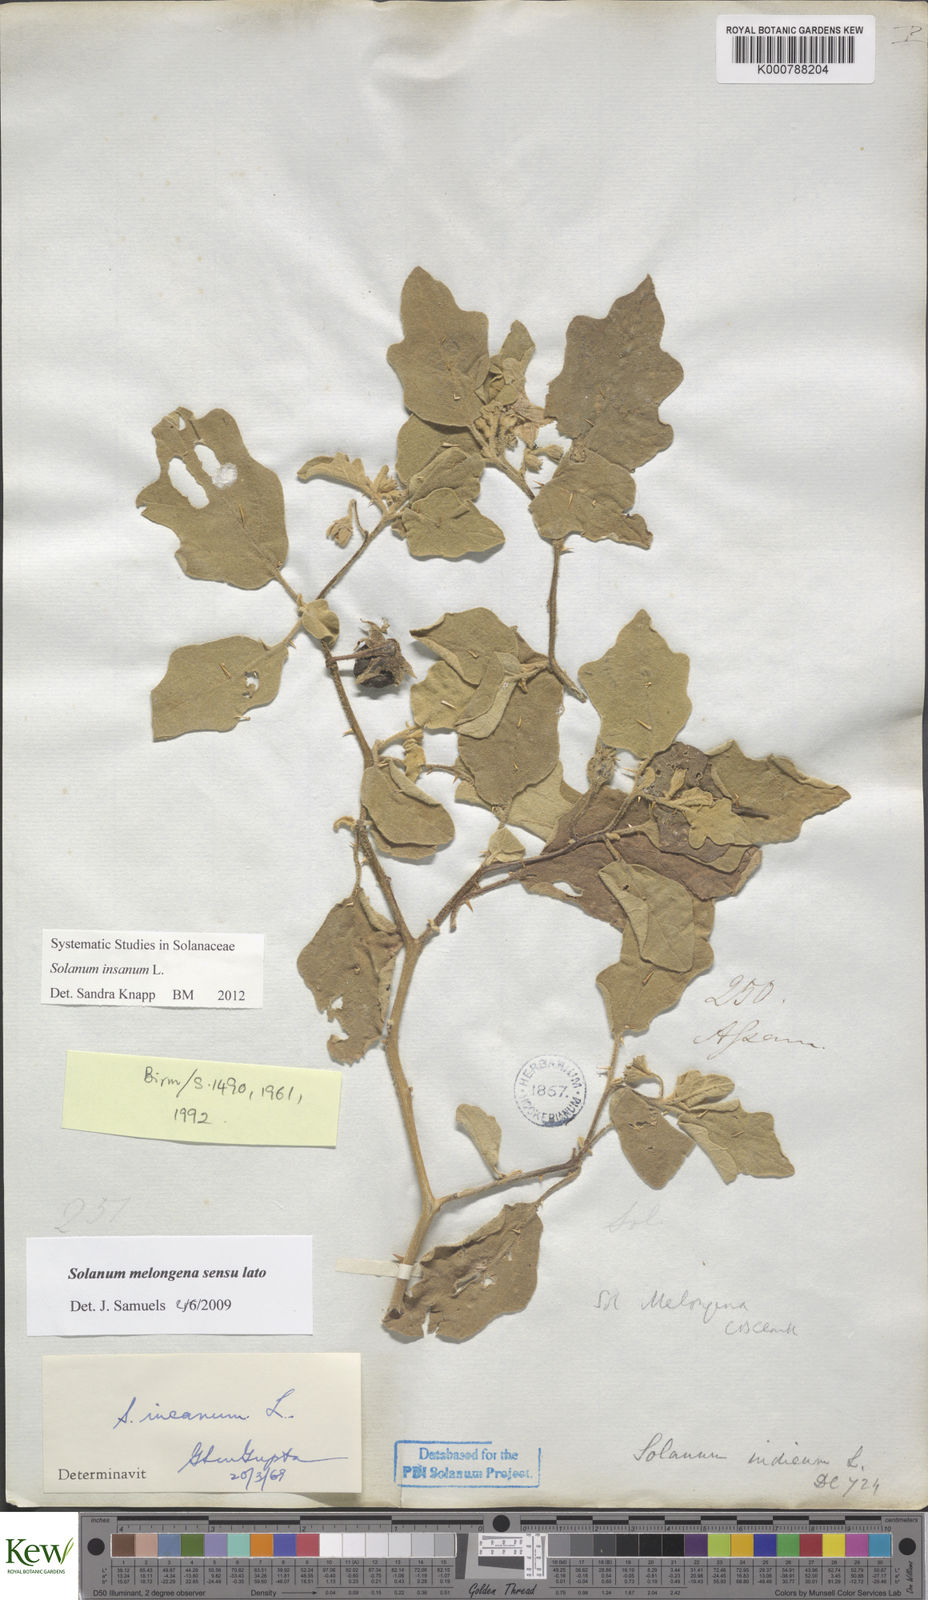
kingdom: Plantae
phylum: Tracheophyta
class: Magnoliopsida
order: Solanales
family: Solanaceae
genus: Solanum
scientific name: Solanum insanum
